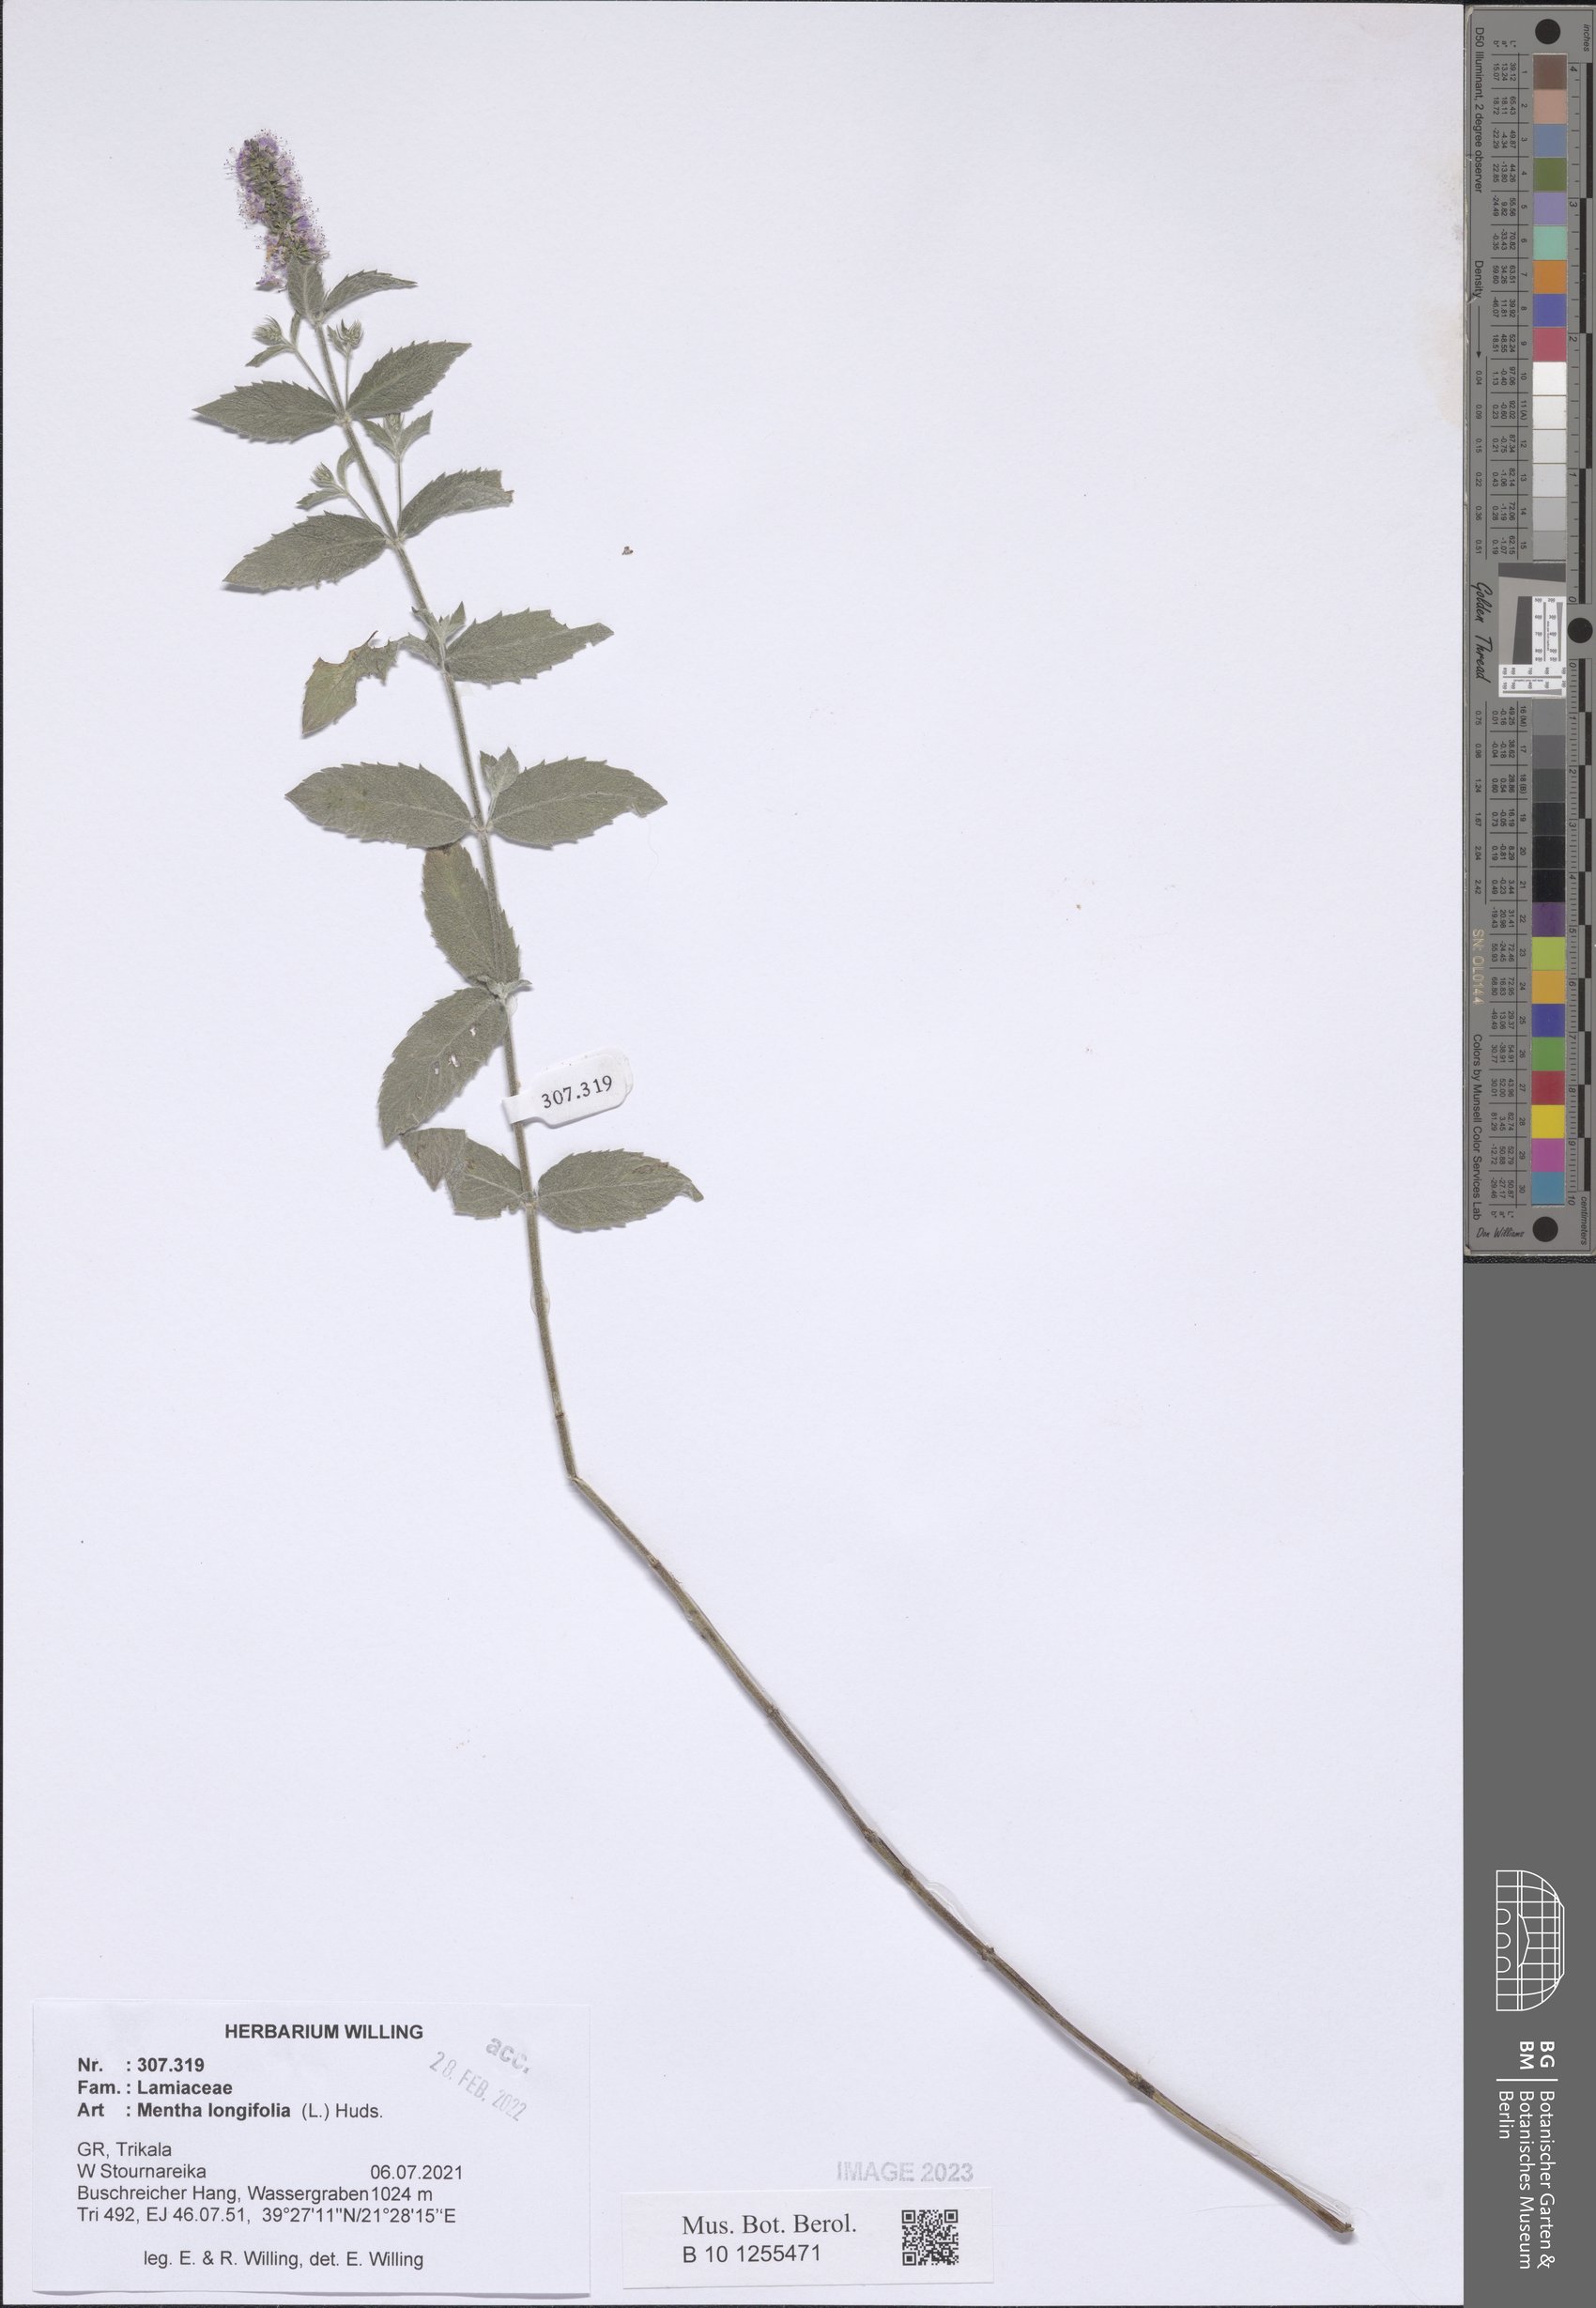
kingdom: Plantae
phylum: Tracheophyta
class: Magnoliopsida
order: Lamiales
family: Lamiaceae
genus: Mentha
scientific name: Mentha longifolia
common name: Horse mint
